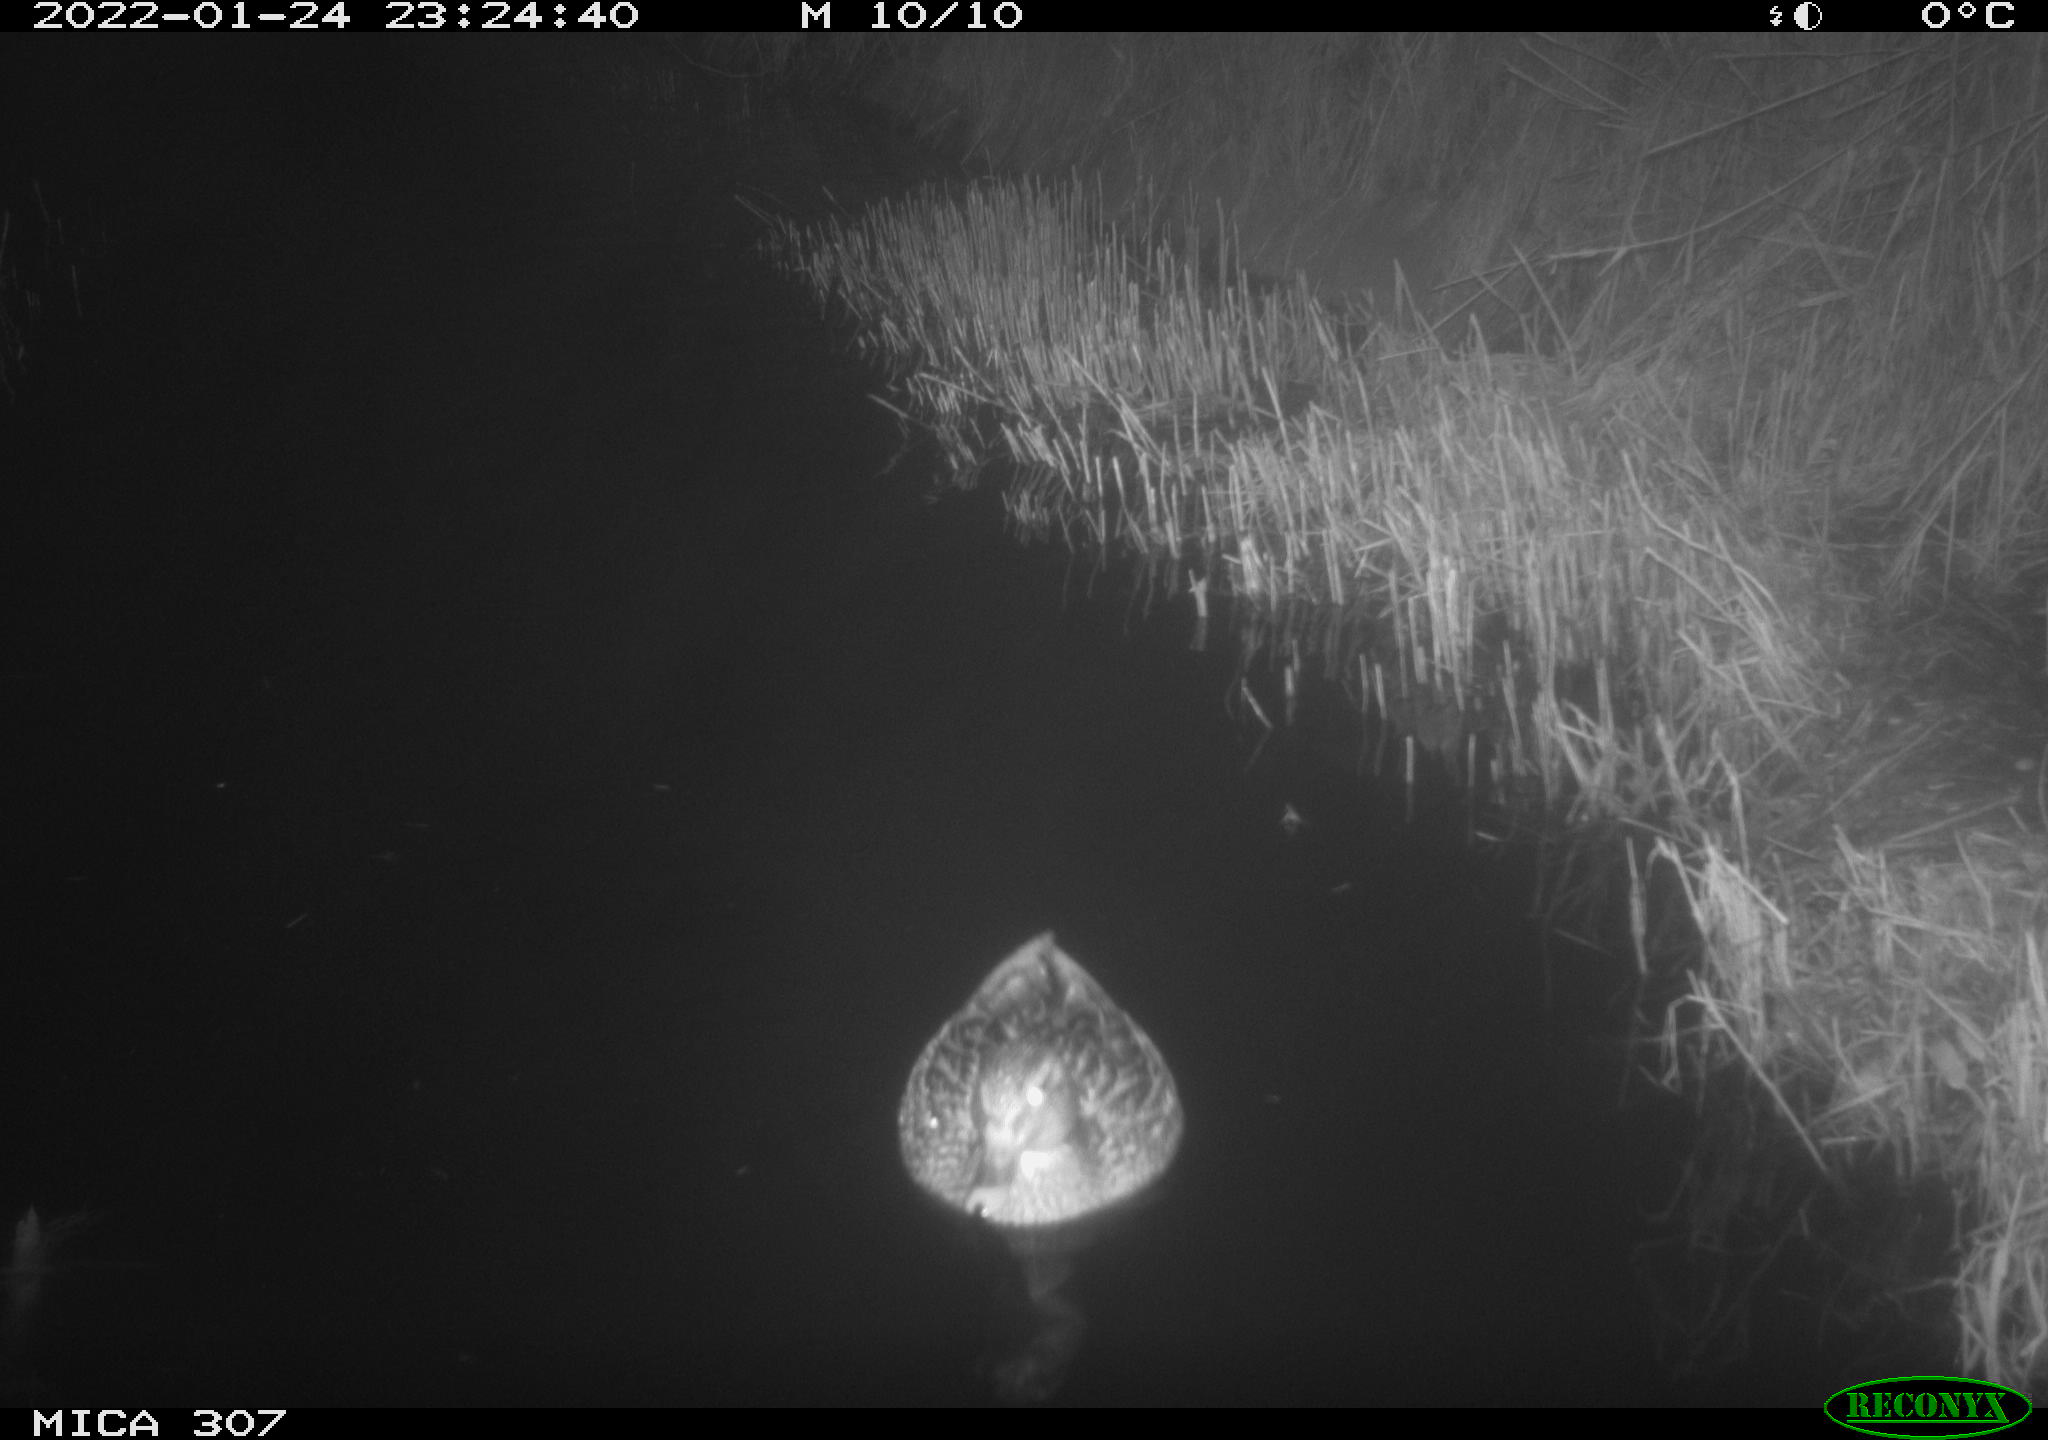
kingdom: Animalia
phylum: Chordata
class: Aves
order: Anseriformes
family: Anatidae
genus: Anas
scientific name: Anas
